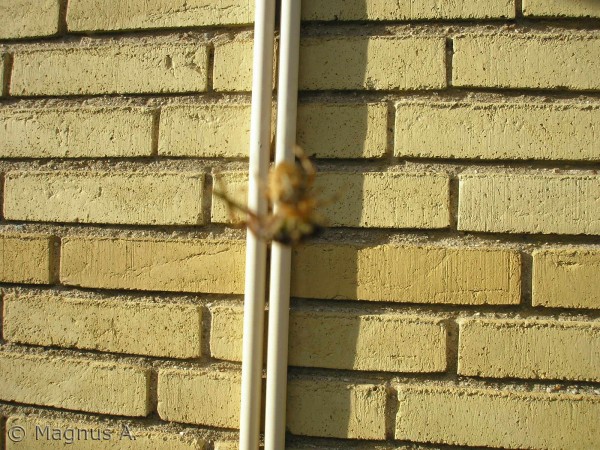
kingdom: Animalia
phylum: Arthropoda
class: Arachnida
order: Araneae
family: Araneidae
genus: Araneus
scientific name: Araneus diadematus
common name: Korsedderkop
